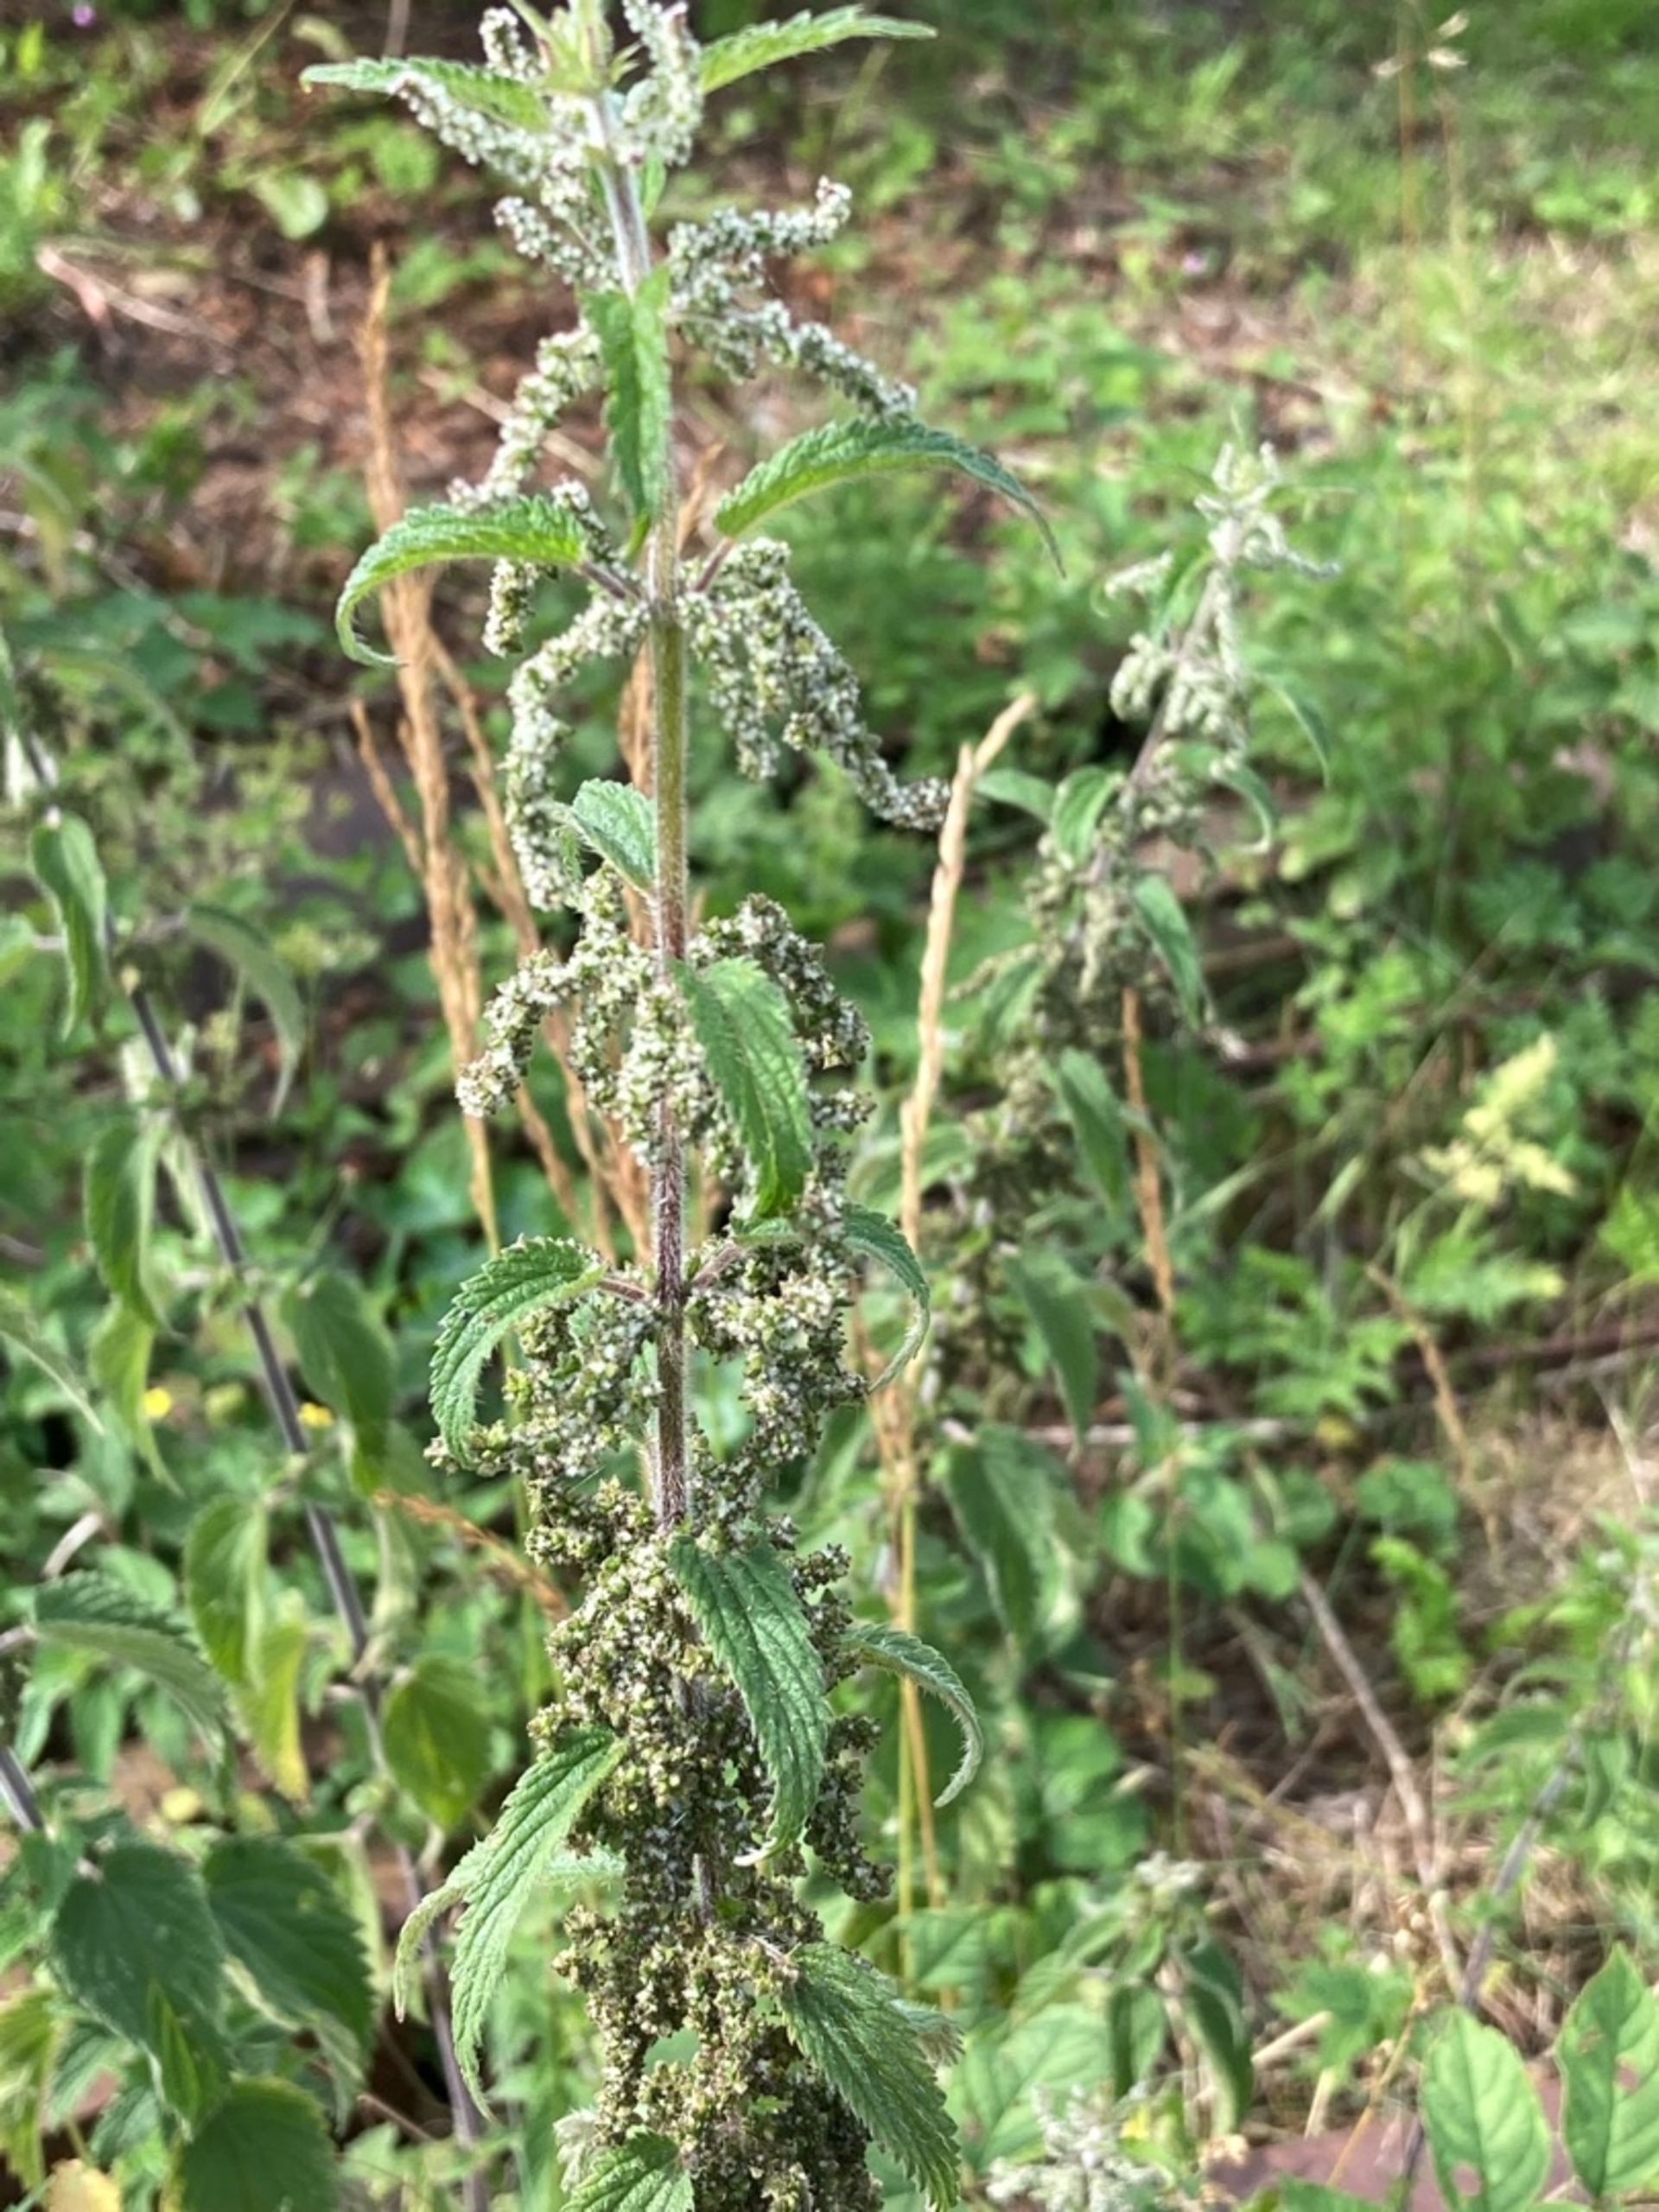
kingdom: Plantae
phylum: Tracheophyta
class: Magnoliopsida
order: Rosales
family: Urticaceae
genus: Urtica
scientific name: Urtica dioica
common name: Stor nælde
